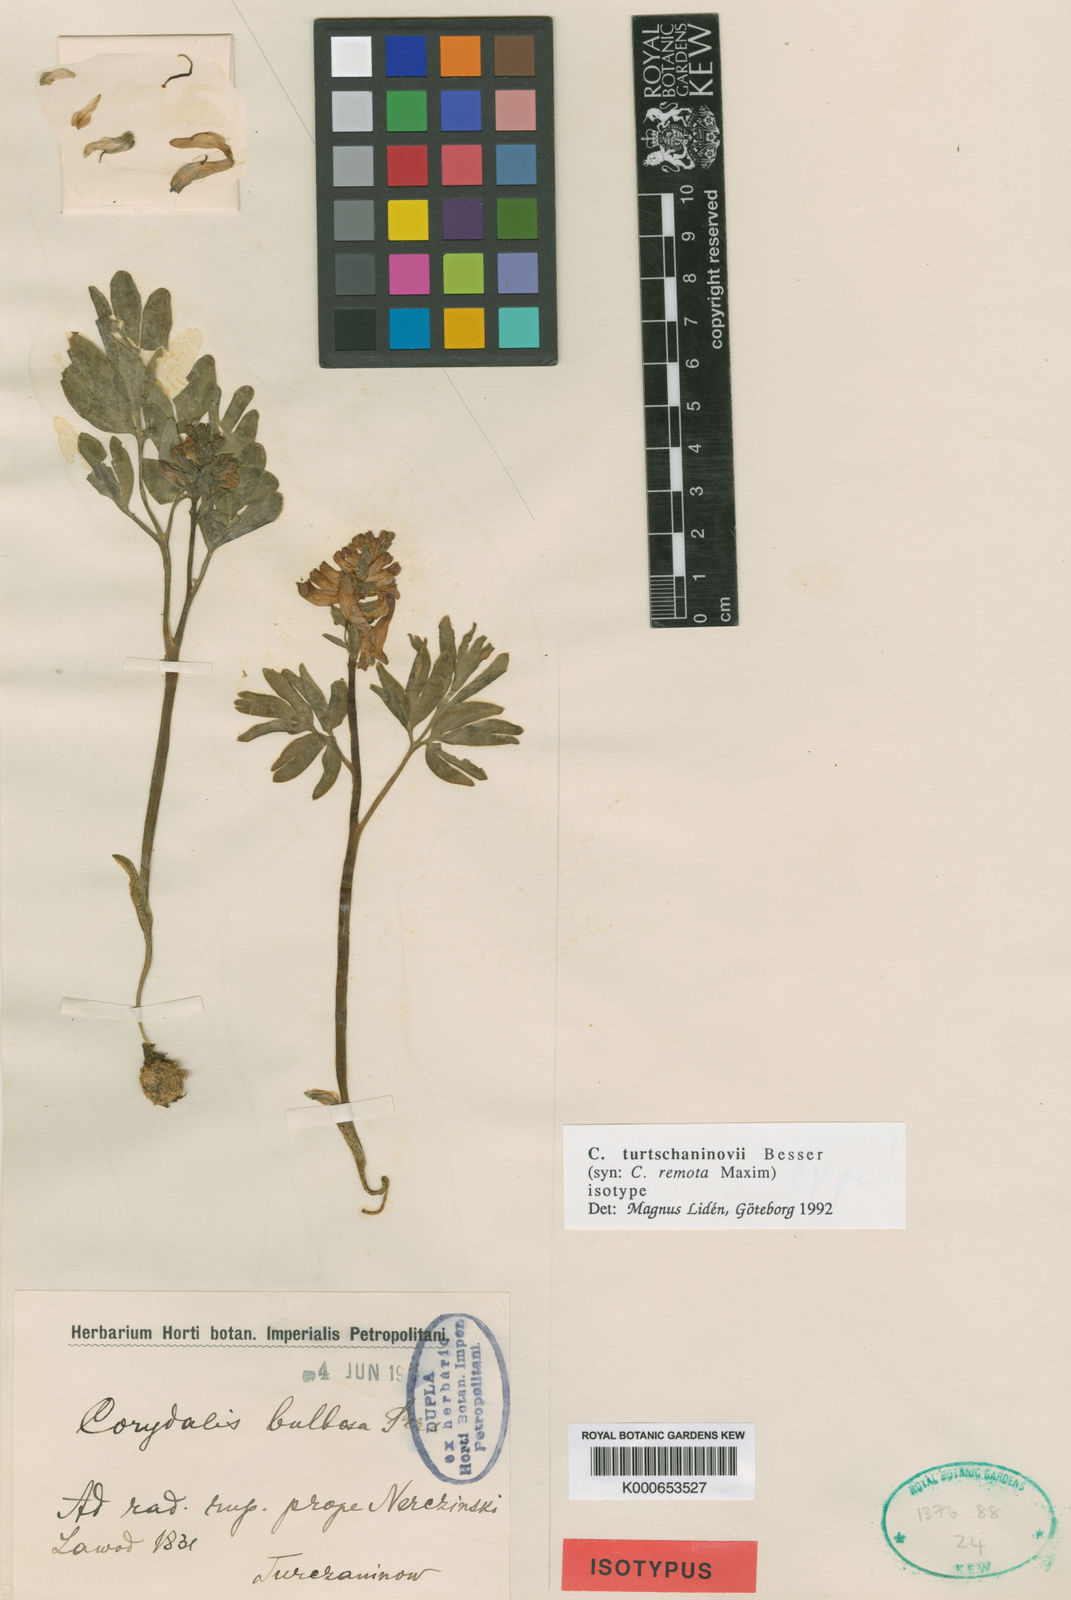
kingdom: Plantae
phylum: Tracheophyta
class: Magnoliopsida
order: Ranunculales
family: Papaveraceae
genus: Corydalis
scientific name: Corydalis turtschaninovii
